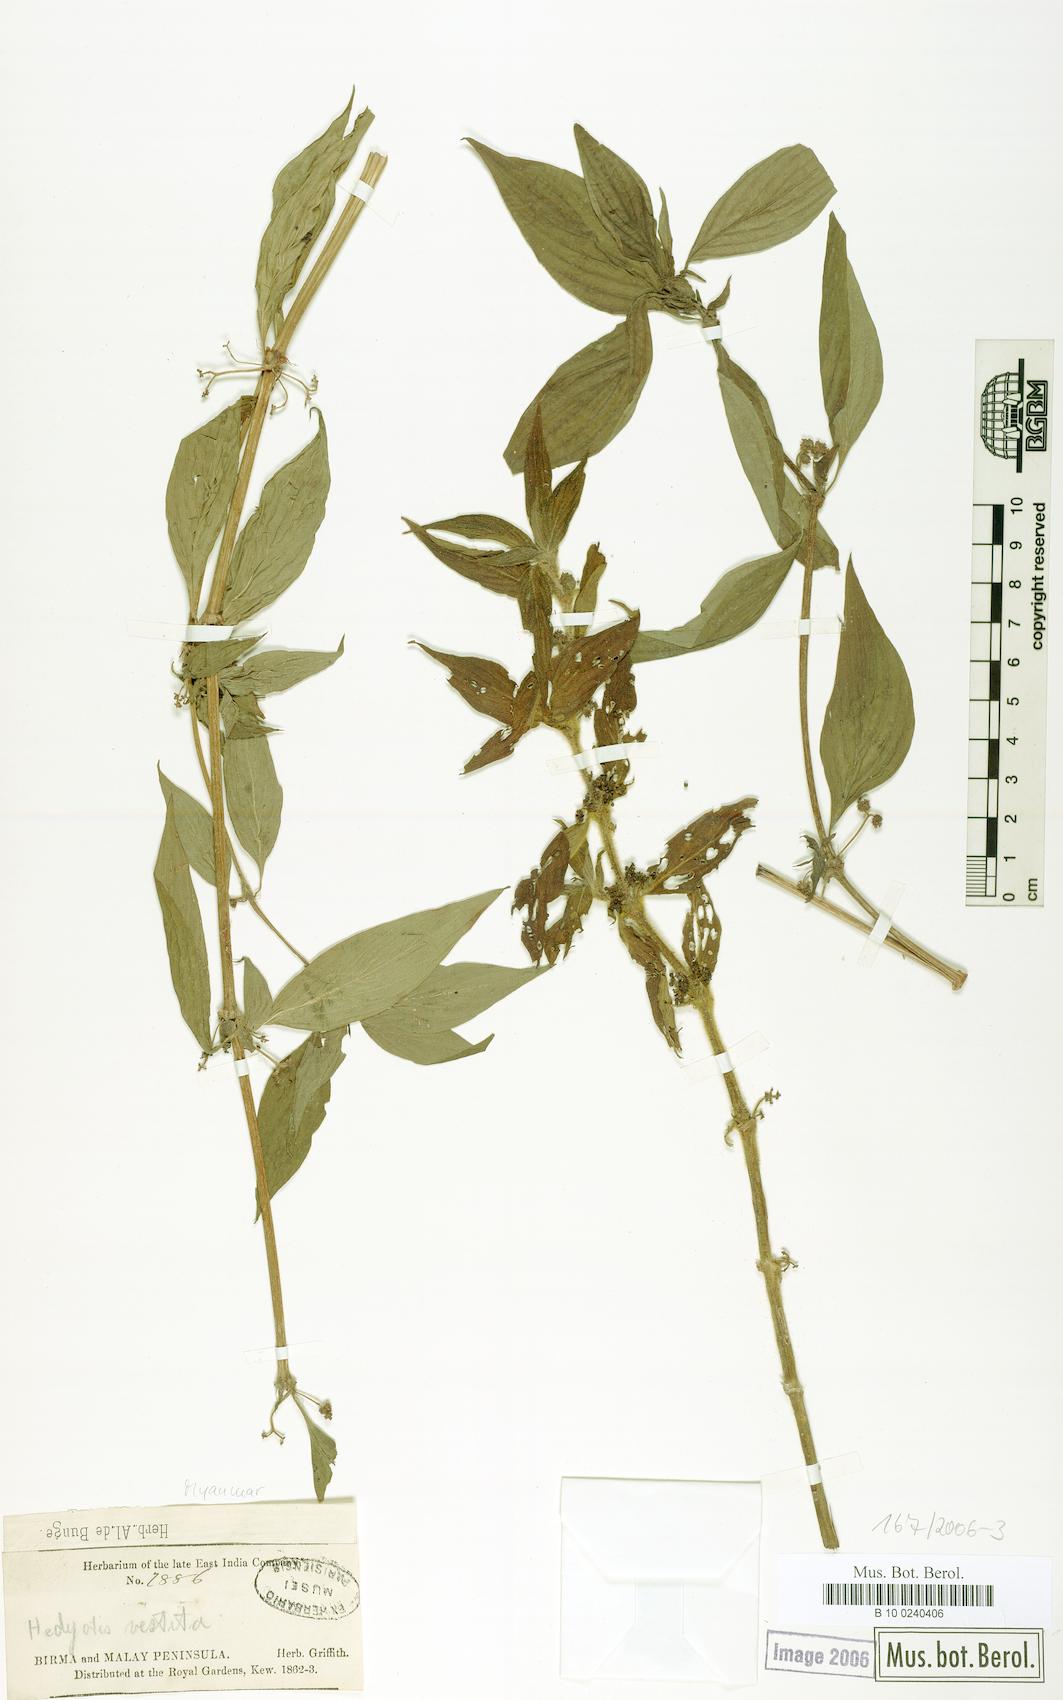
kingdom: Plantae
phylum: Tracheophyta
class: Magnoliopsida
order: Gentianales
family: Rubiaceae
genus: Hedyotis
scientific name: Hedyotis vestita
